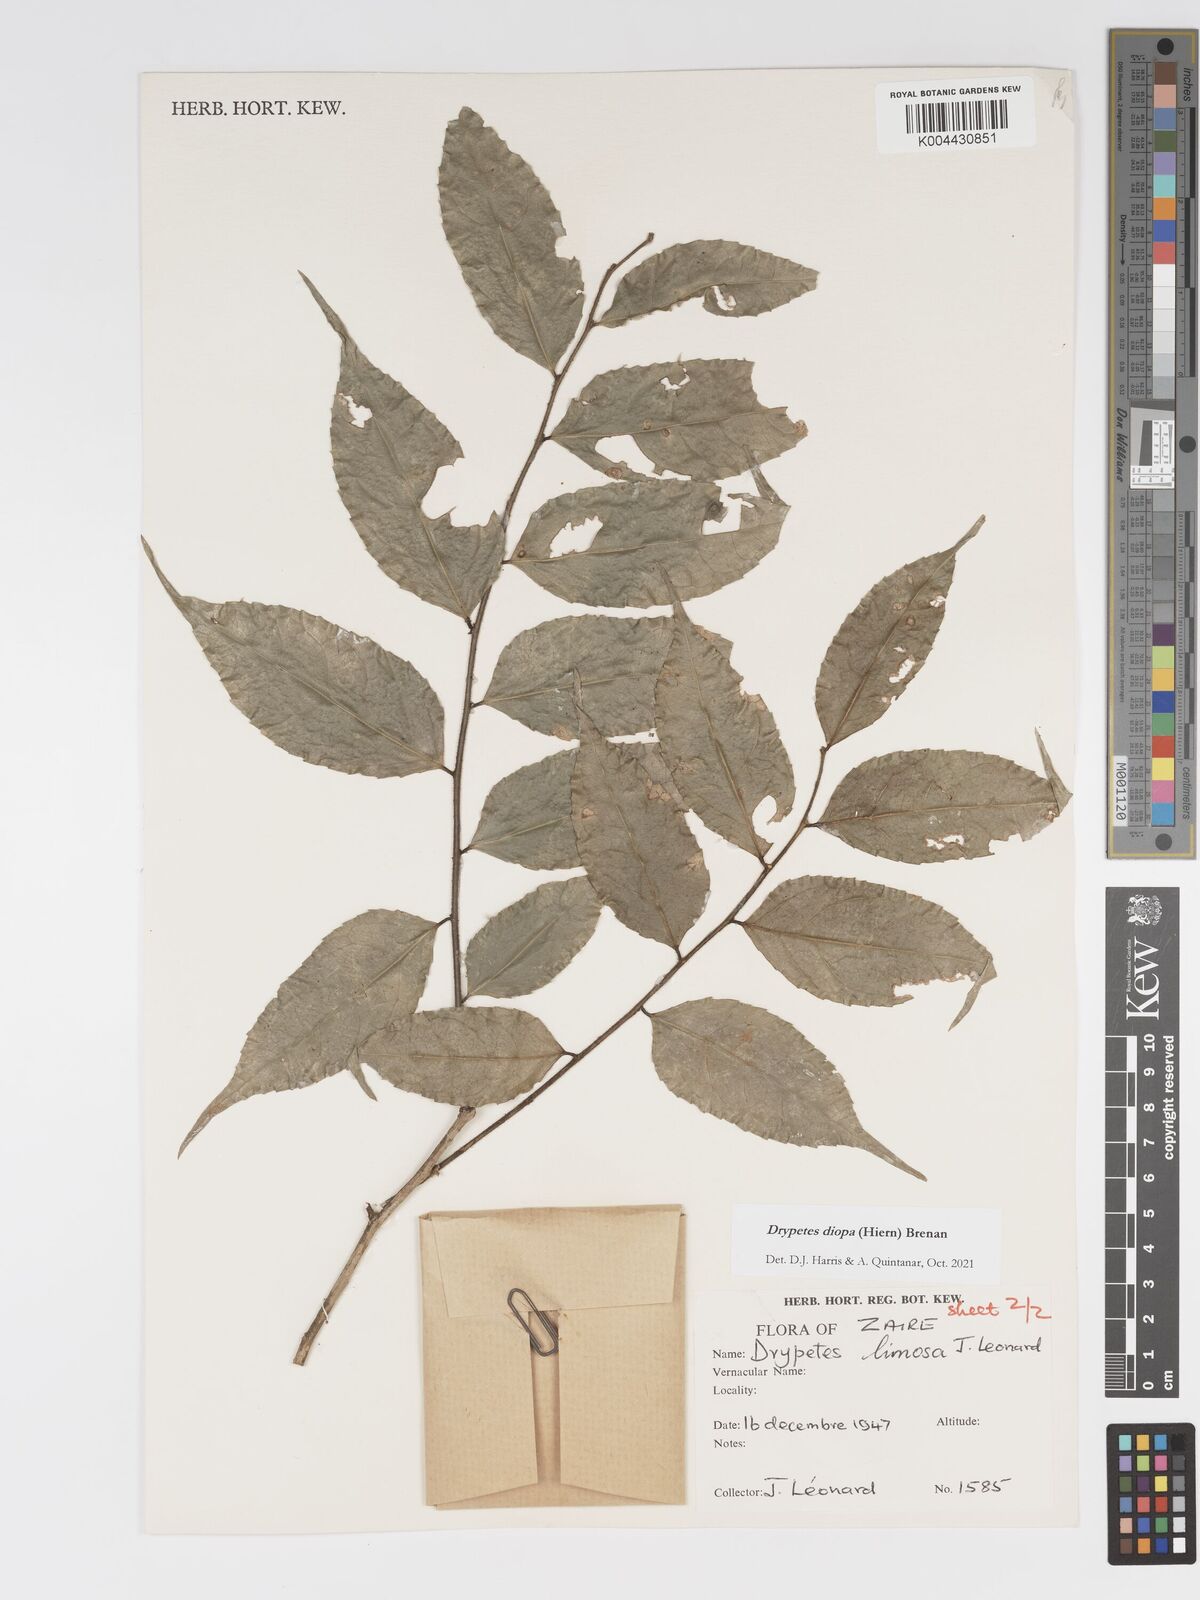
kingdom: Plantae
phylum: Tracheophyta
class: Magnoliopsida
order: Malpighiales
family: Putranjivaceae
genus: Drypetes
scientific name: Drypetes diopa
